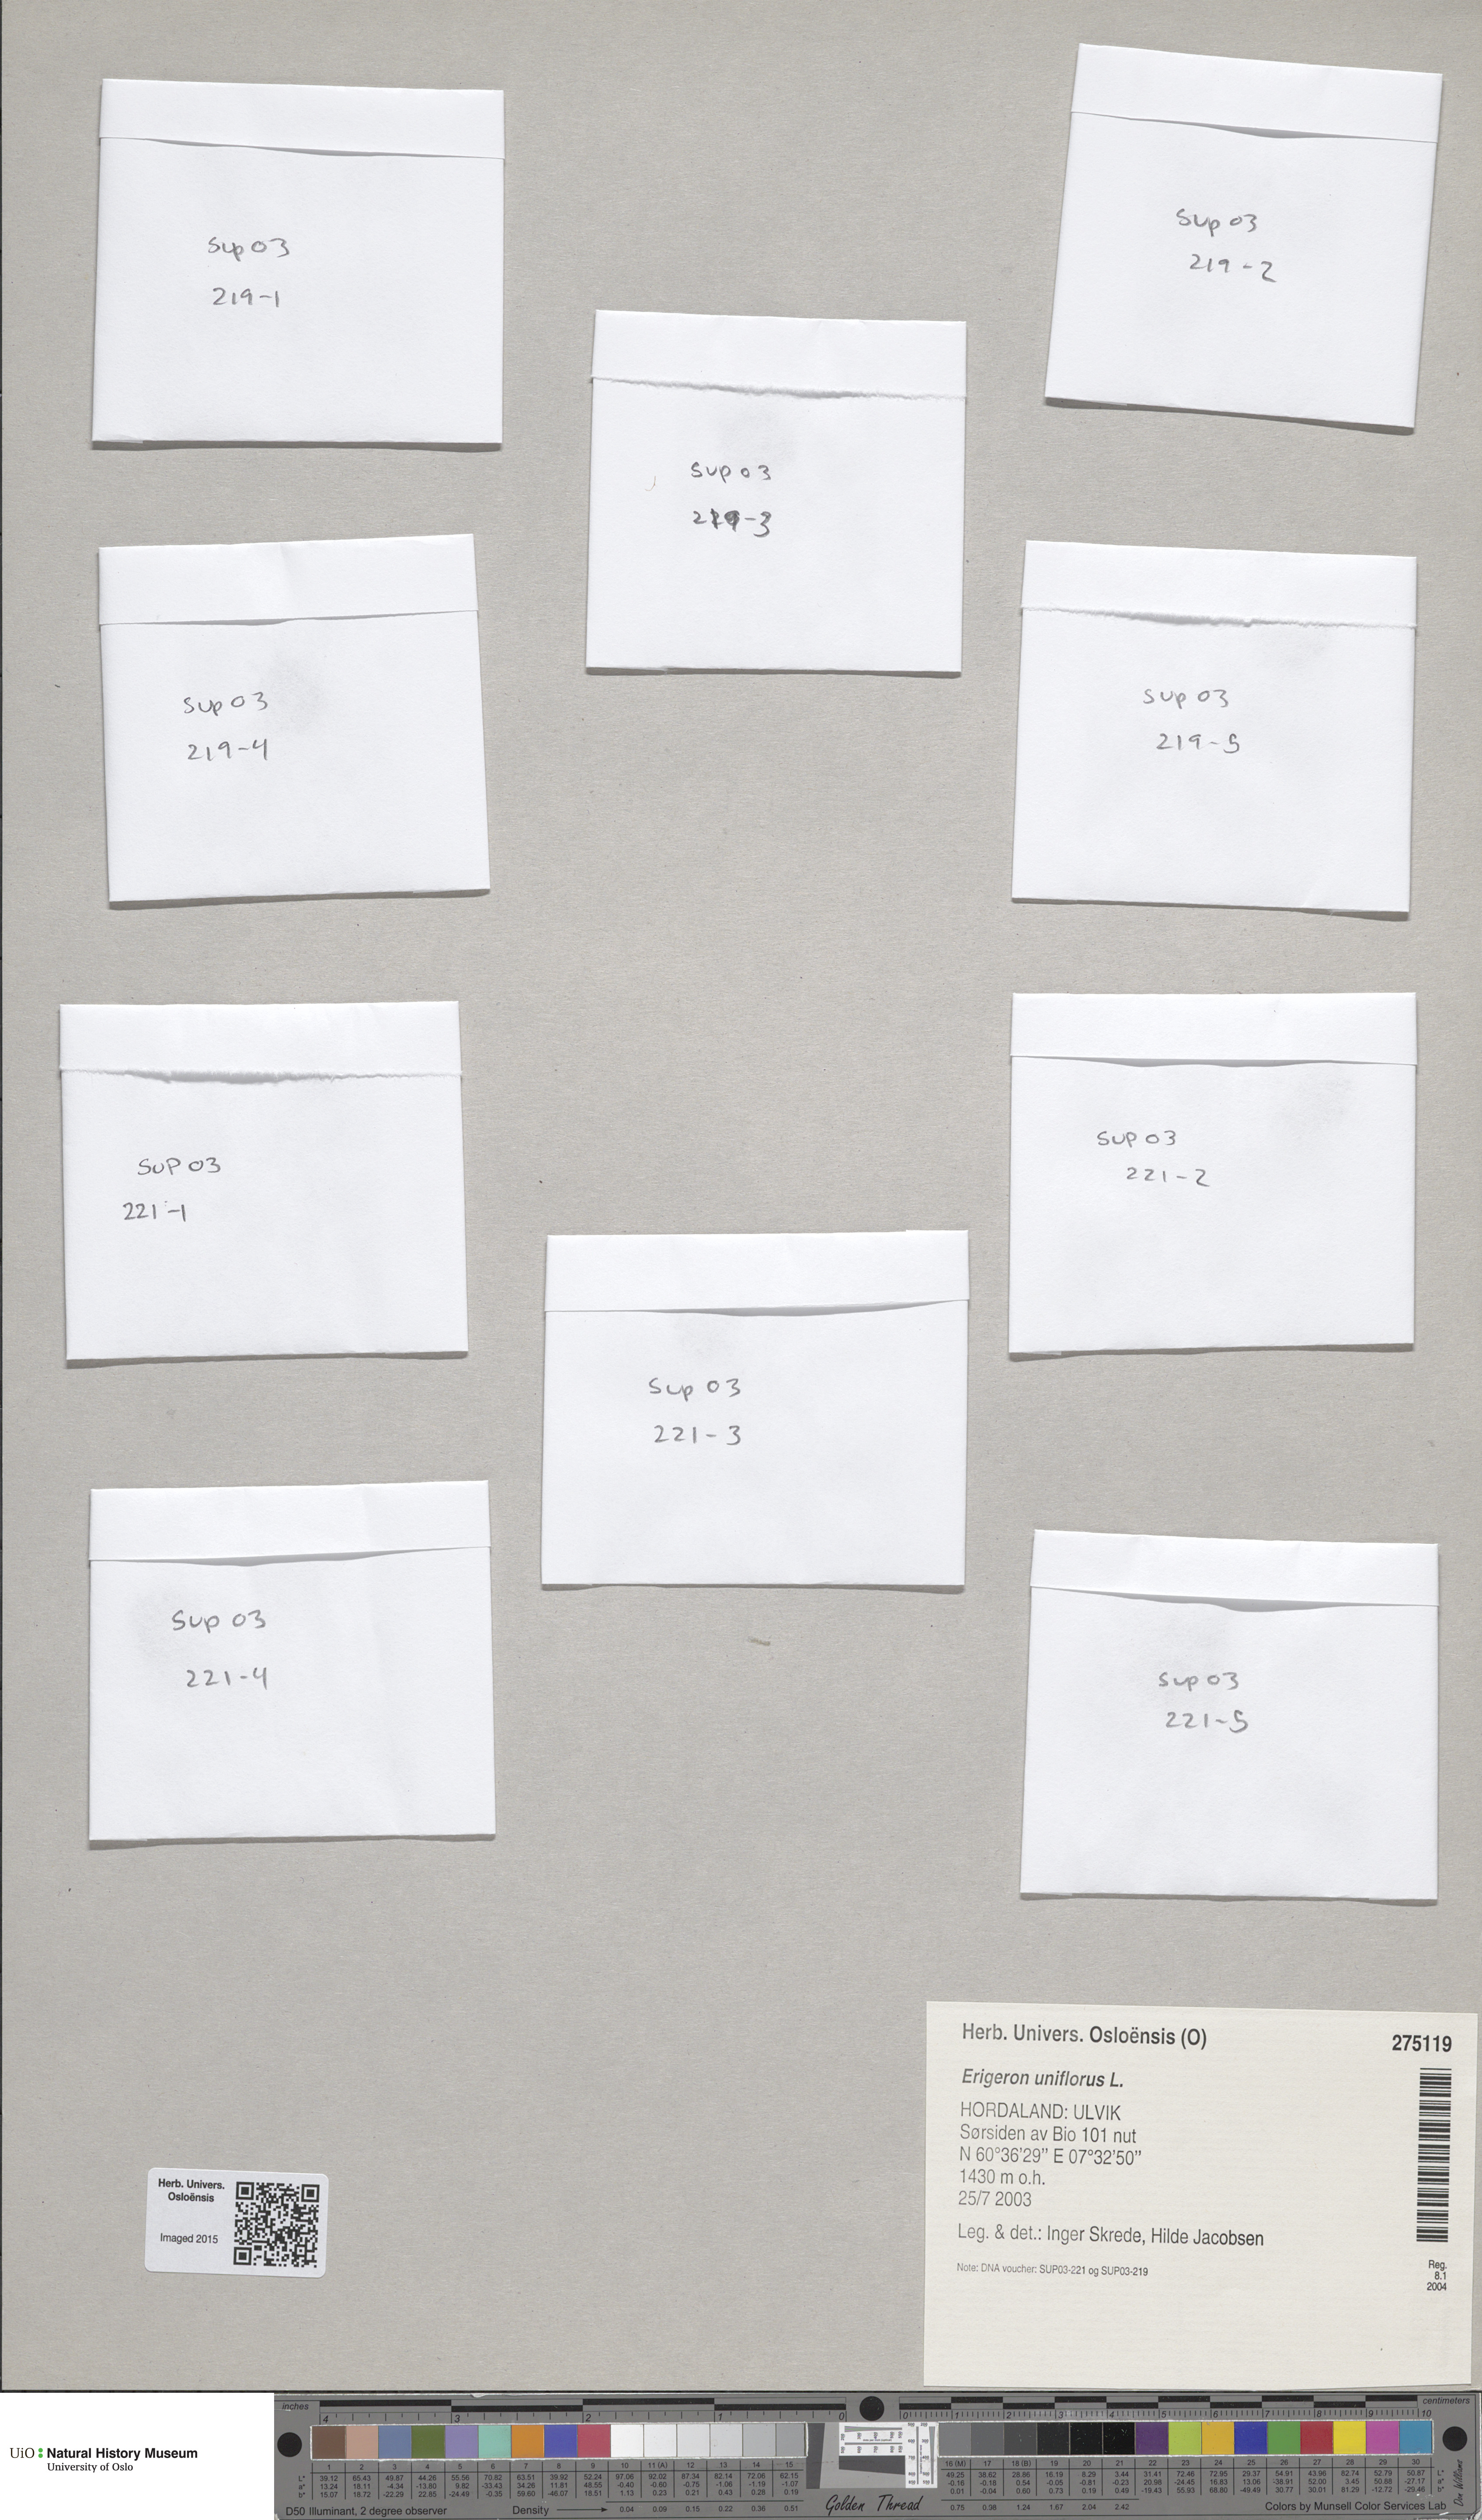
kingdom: Plantae
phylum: Tracheophyta
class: Magnoliopsida
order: Asterales
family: Asteraceae
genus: Erigeron
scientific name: Erigeron uniflorus
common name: Northern daisy
